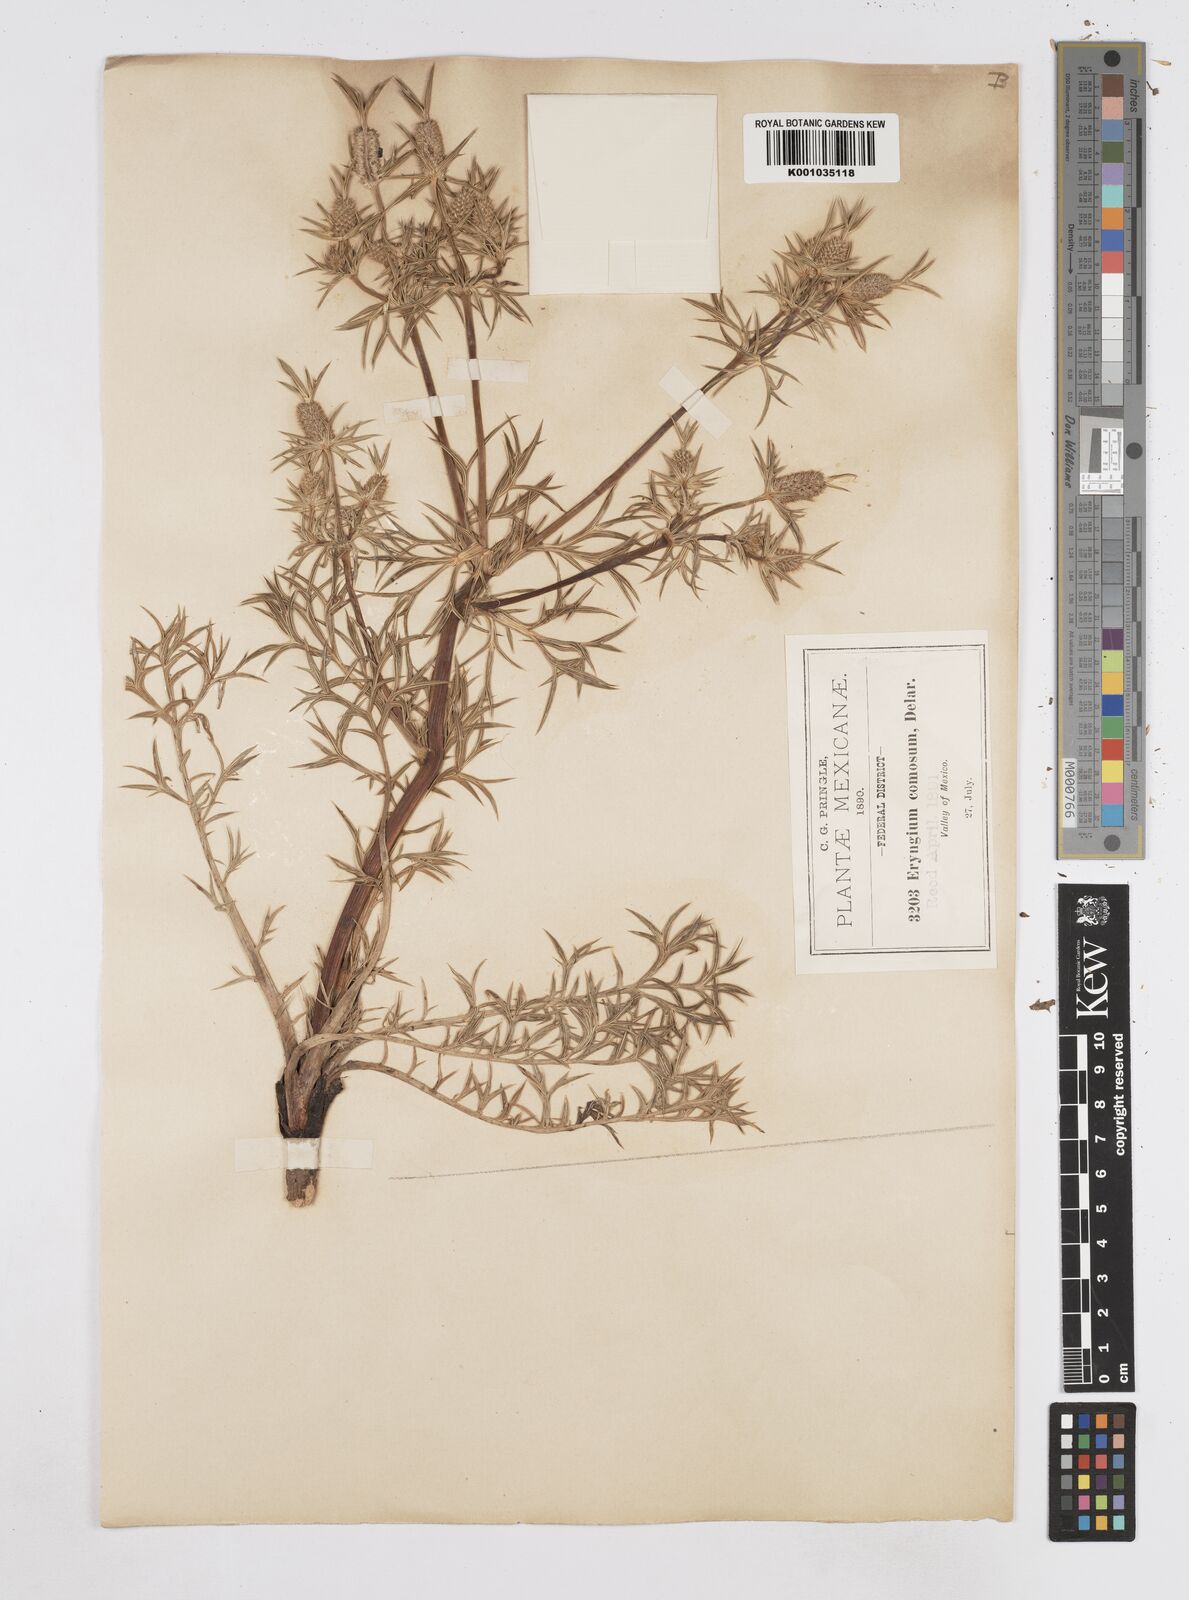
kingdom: Plantae
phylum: Tracheophyta
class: Magnoliopsida
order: Apiales
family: Apiaceae
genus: Eryngium
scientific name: Eryngium comosum
